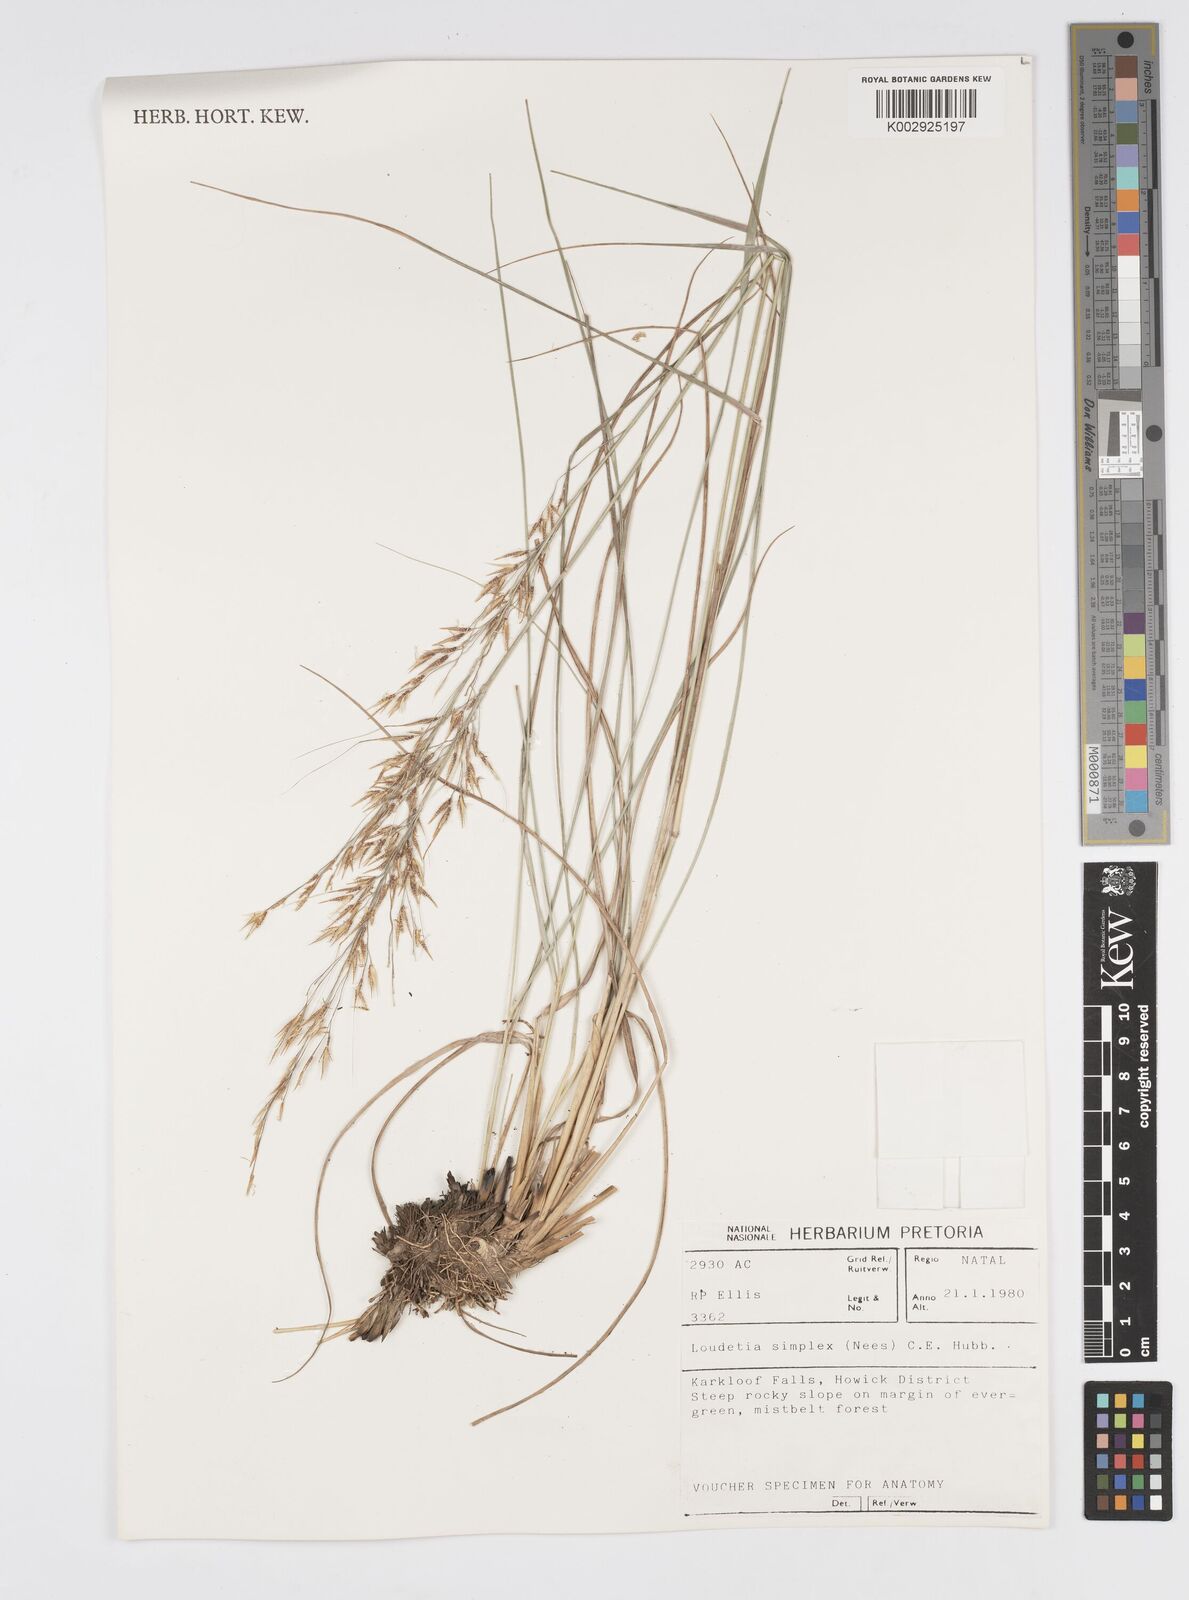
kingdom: Plantae
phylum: Tracheophyta
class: Liliopsida
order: Poales
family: Poaceae
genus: Loudetia
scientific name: Loudetia simplex
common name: Common russet grass
